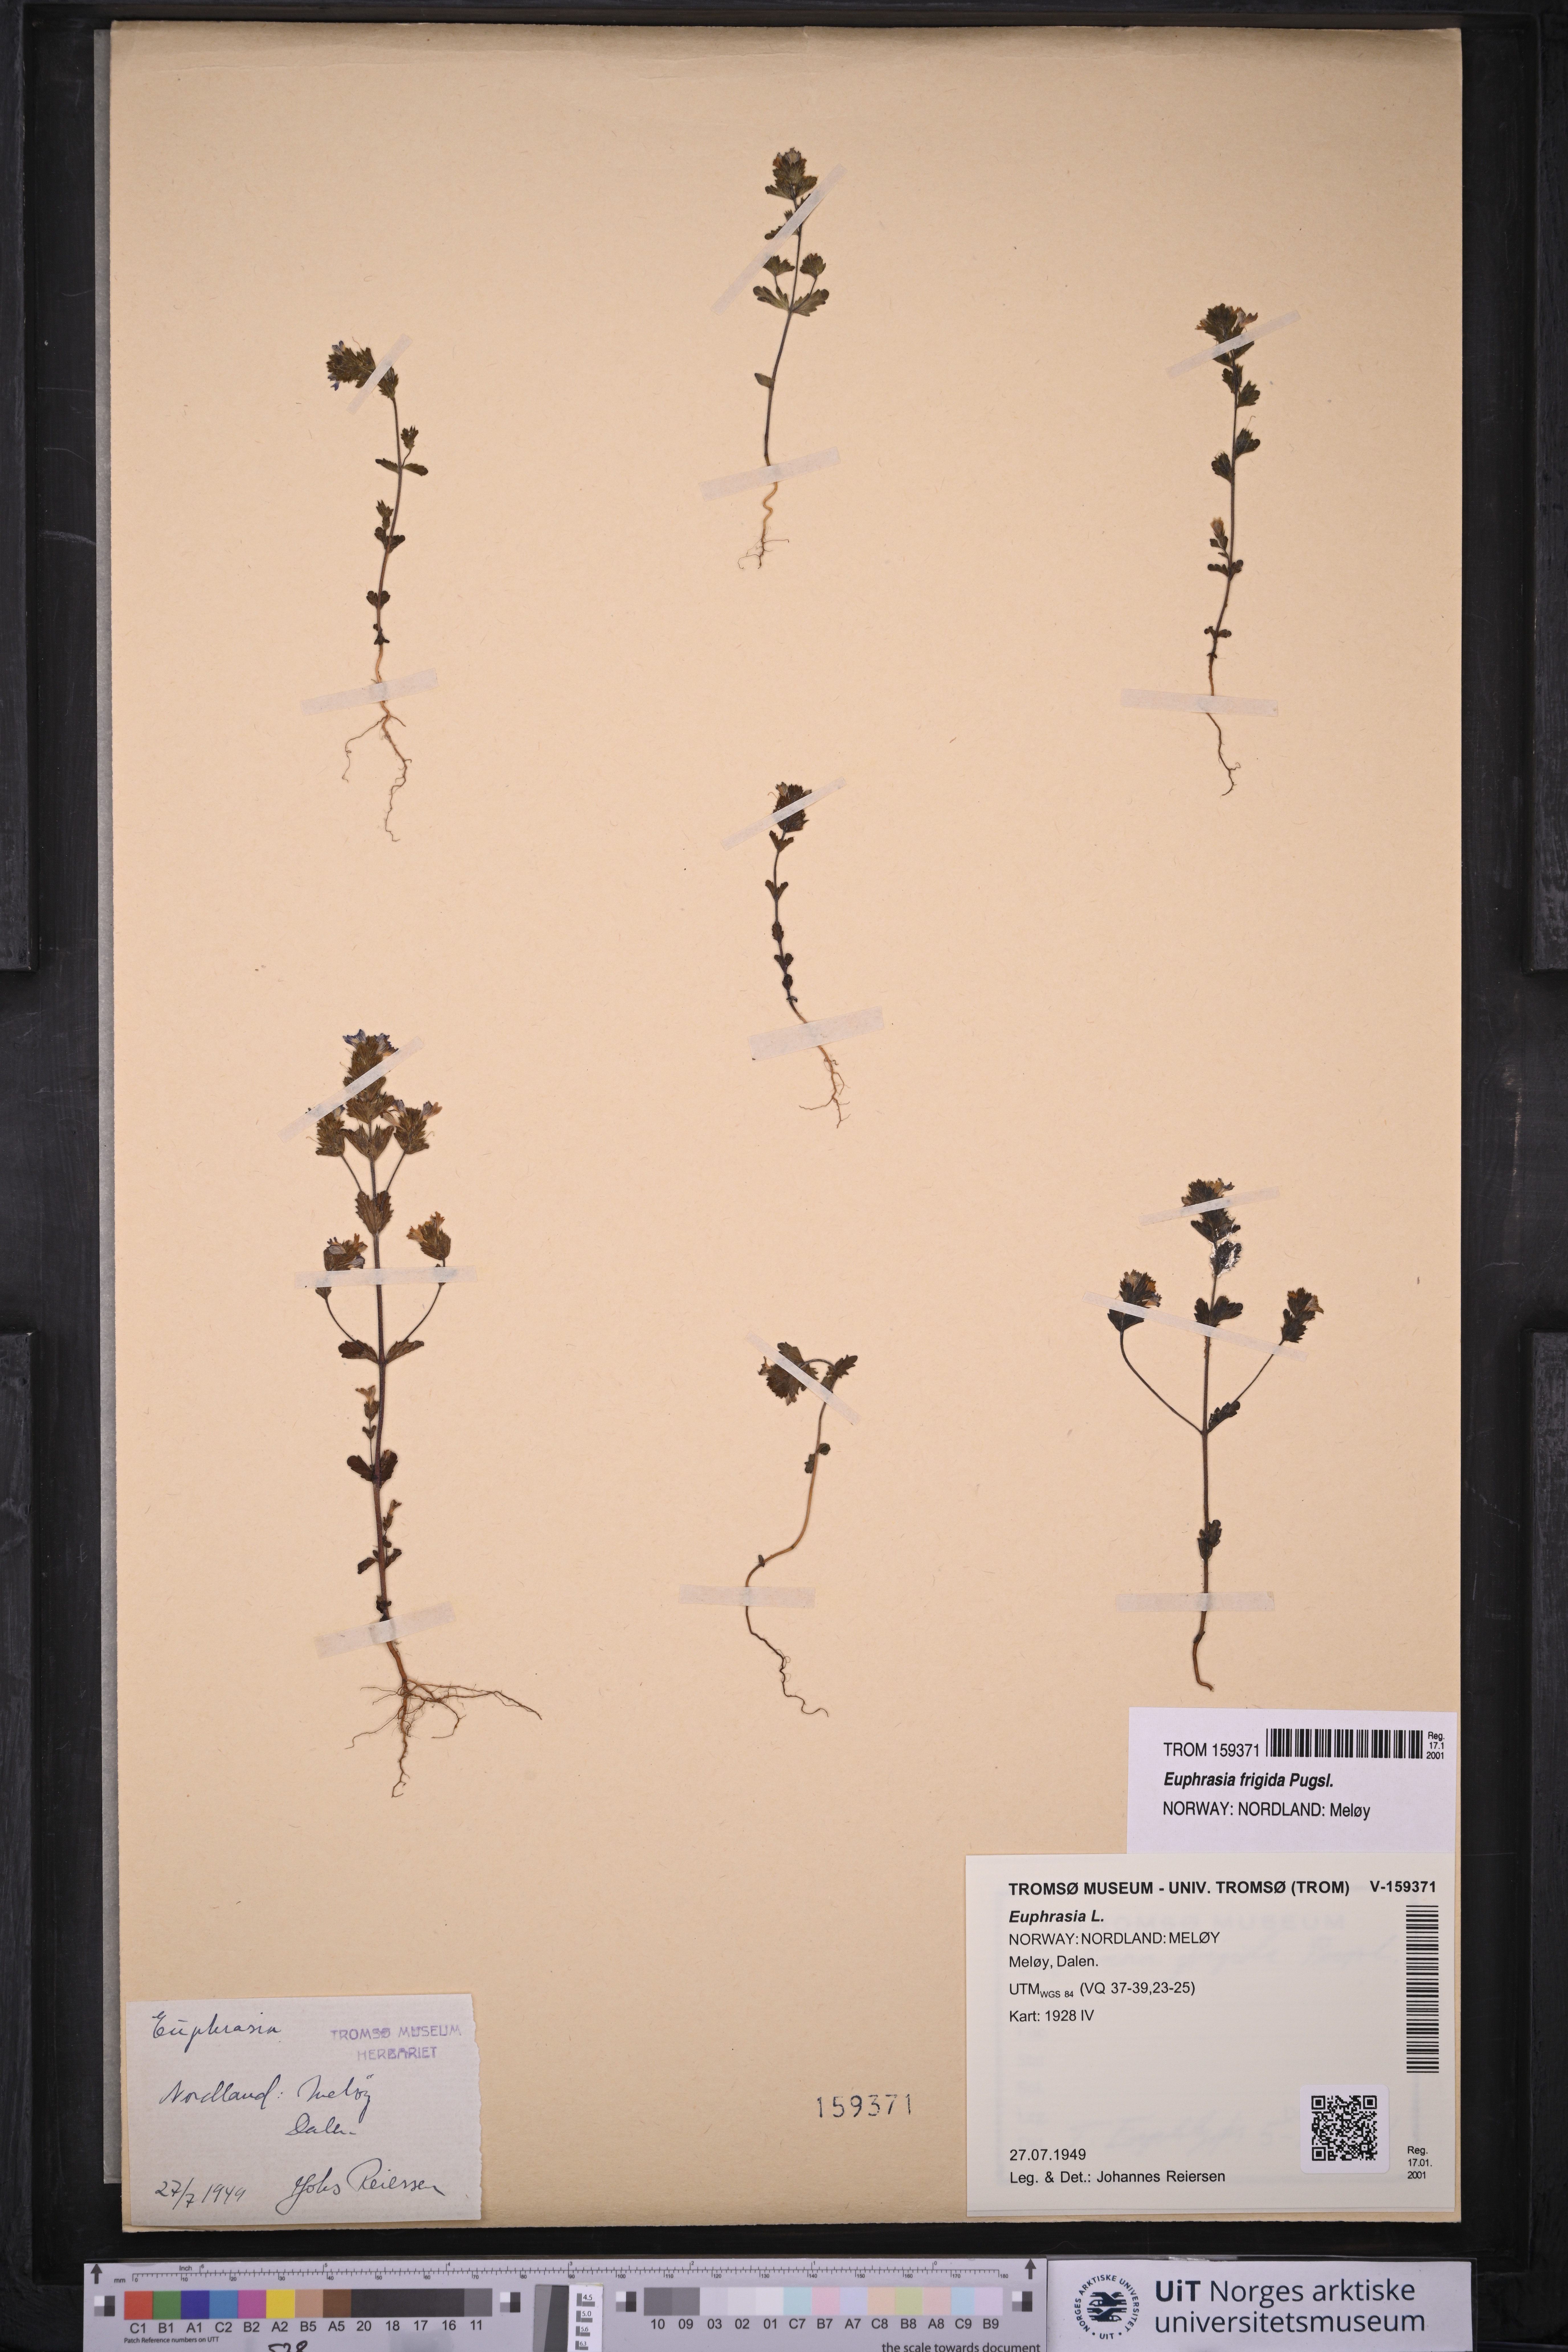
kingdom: Plantae
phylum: Tracheophyta
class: Magnoliopsida
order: Lamiales
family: Orobanchaceae
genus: Euphrasia
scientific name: Euphrasia frigida
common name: An eyebright
